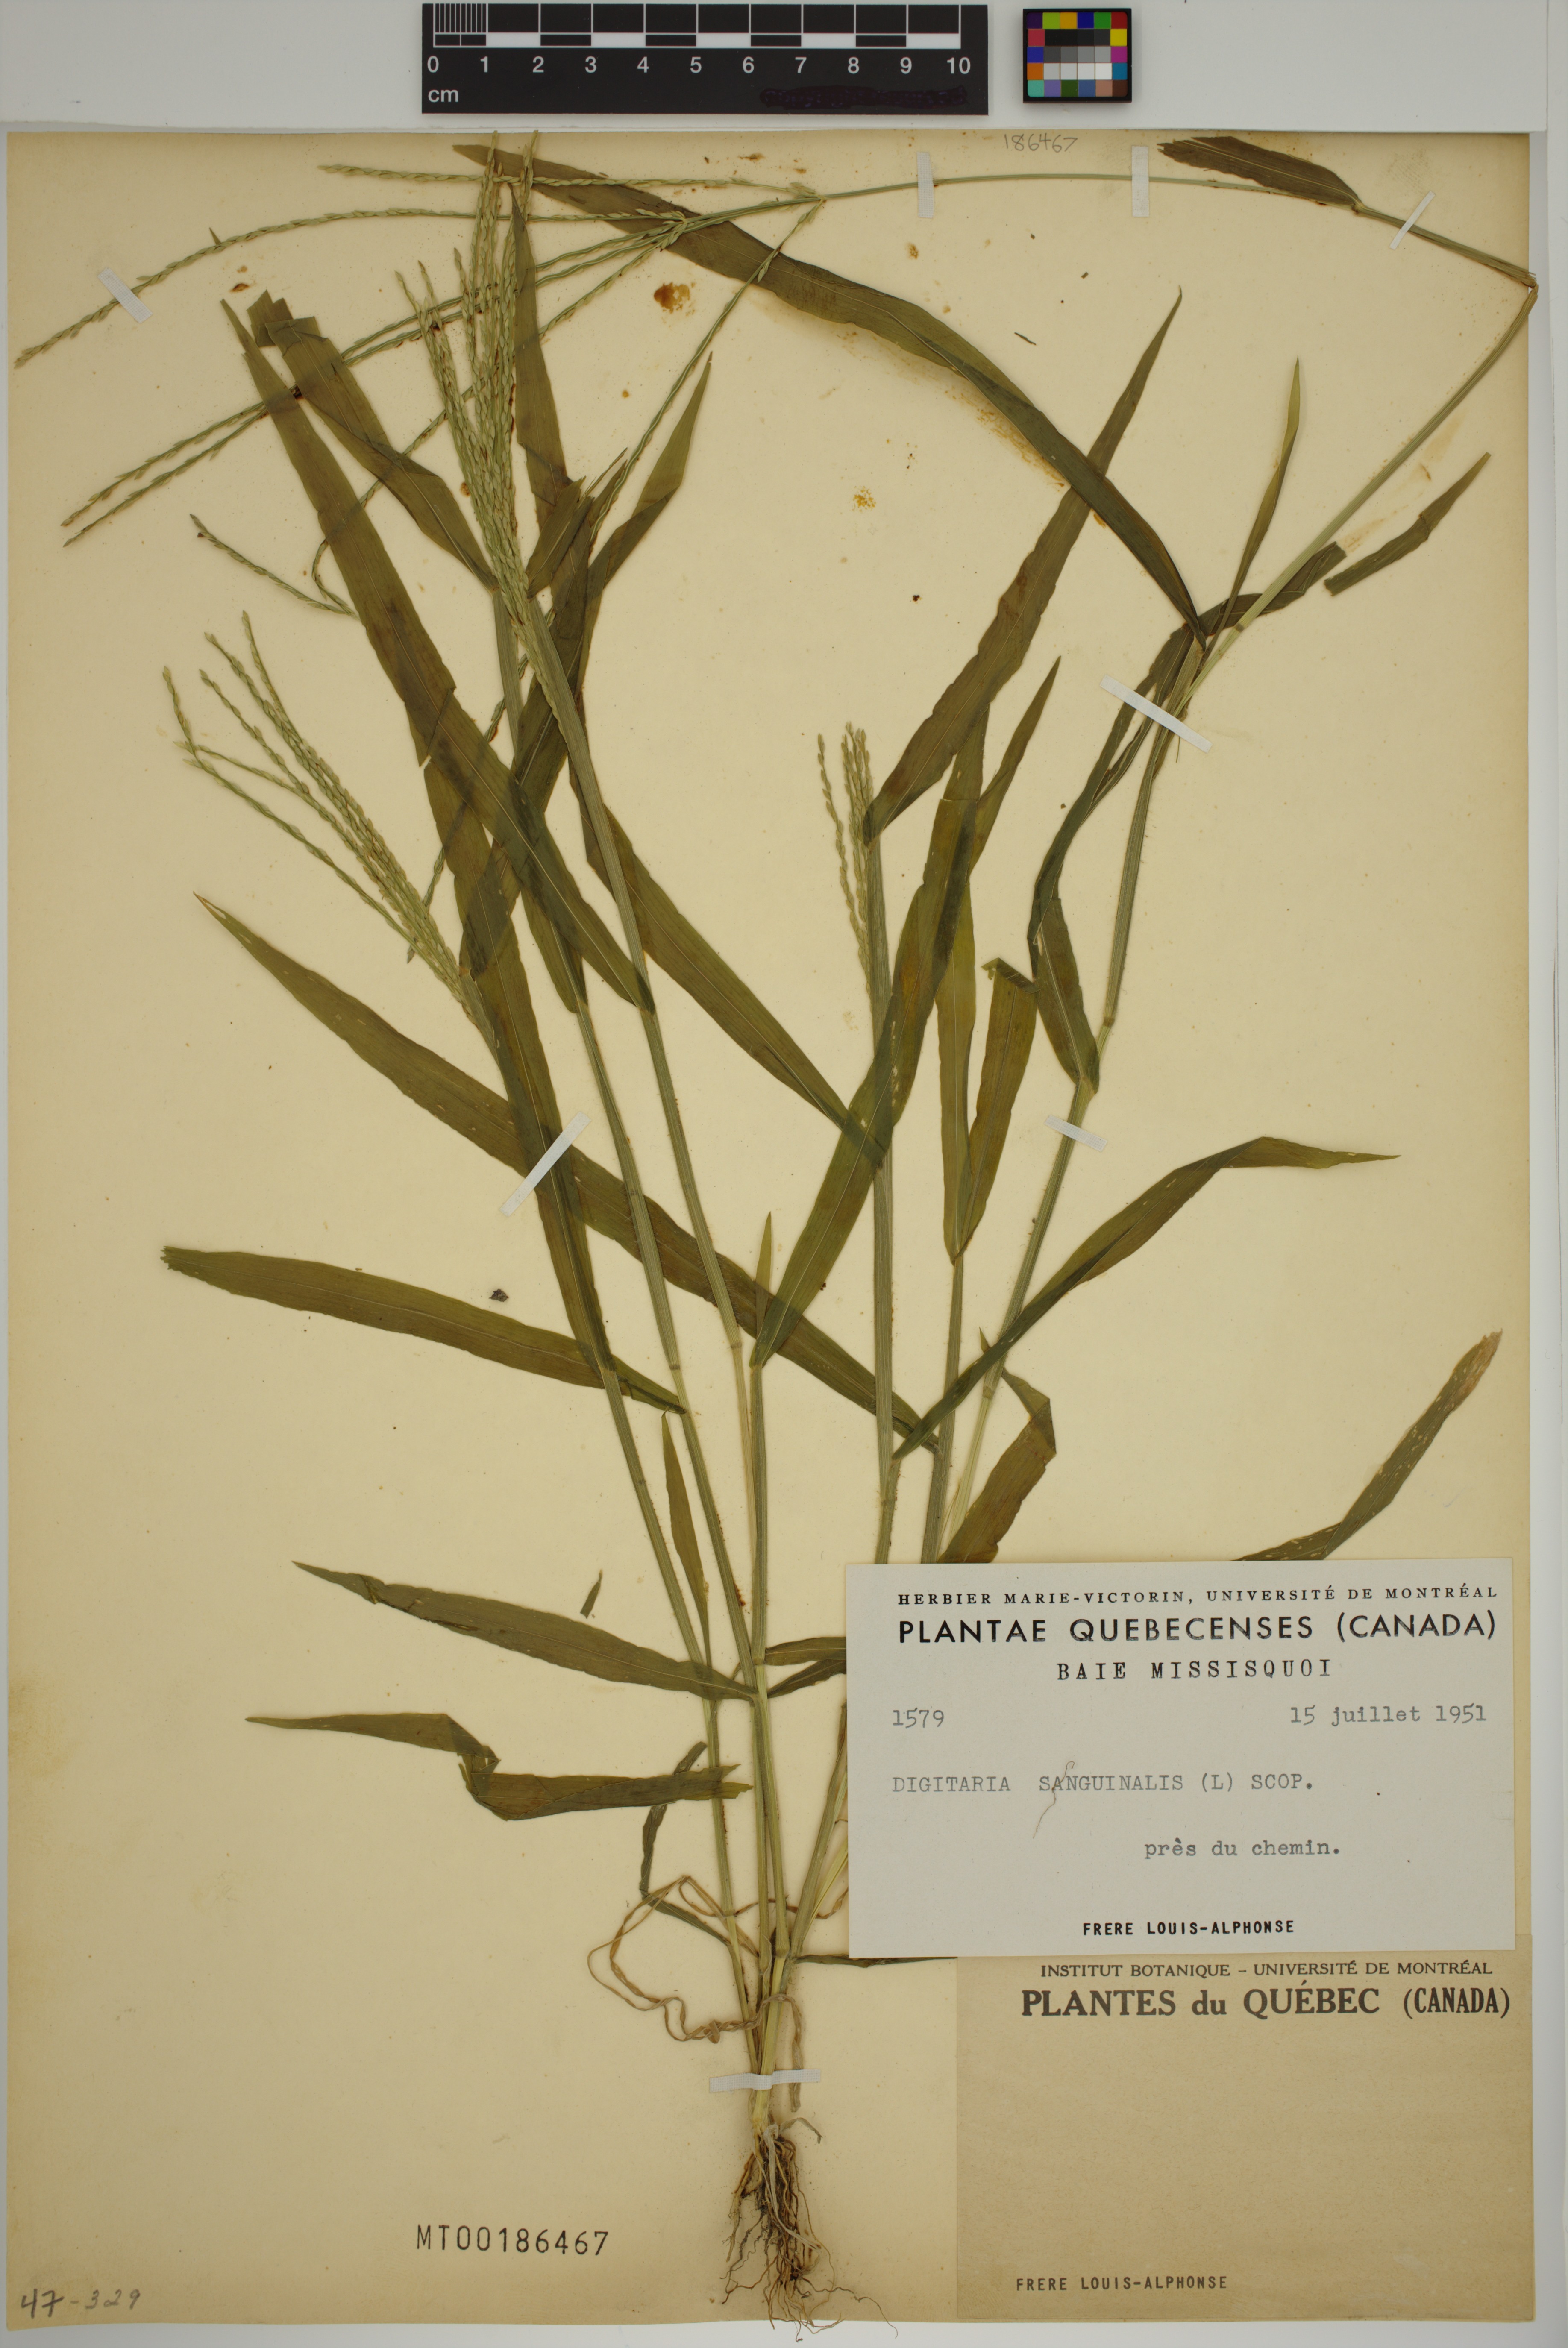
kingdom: Plantae
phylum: Tracheophyta
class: Liliopsida
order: Poales
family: Poaceae
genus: Digitaria
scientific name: Digitaria sanguinalis
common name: Hairy crabgrass
